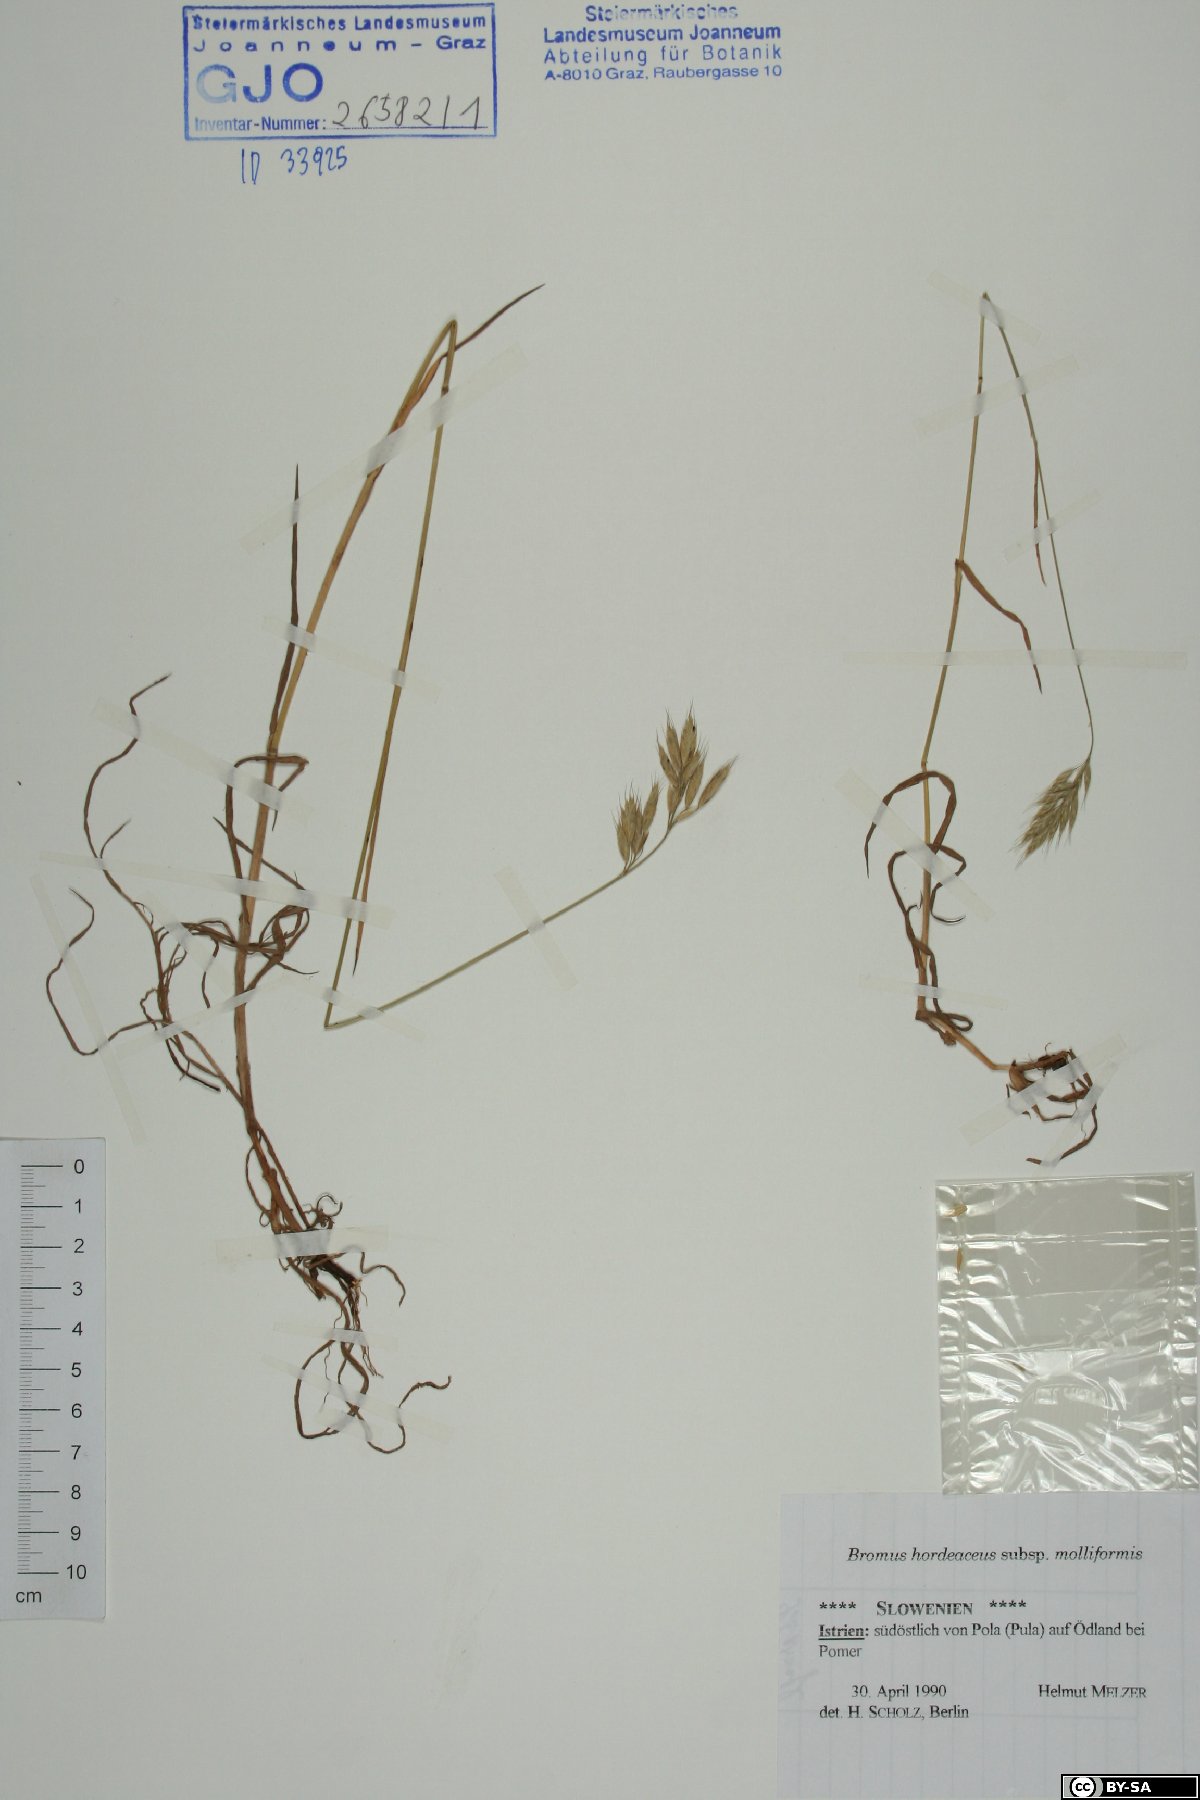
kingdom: Plantae
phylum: Tracheophyta
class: Liliopsida
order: Poales
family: Poaceae
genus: Bromus
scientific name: Bromus hordeaceus
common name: Soft brome
